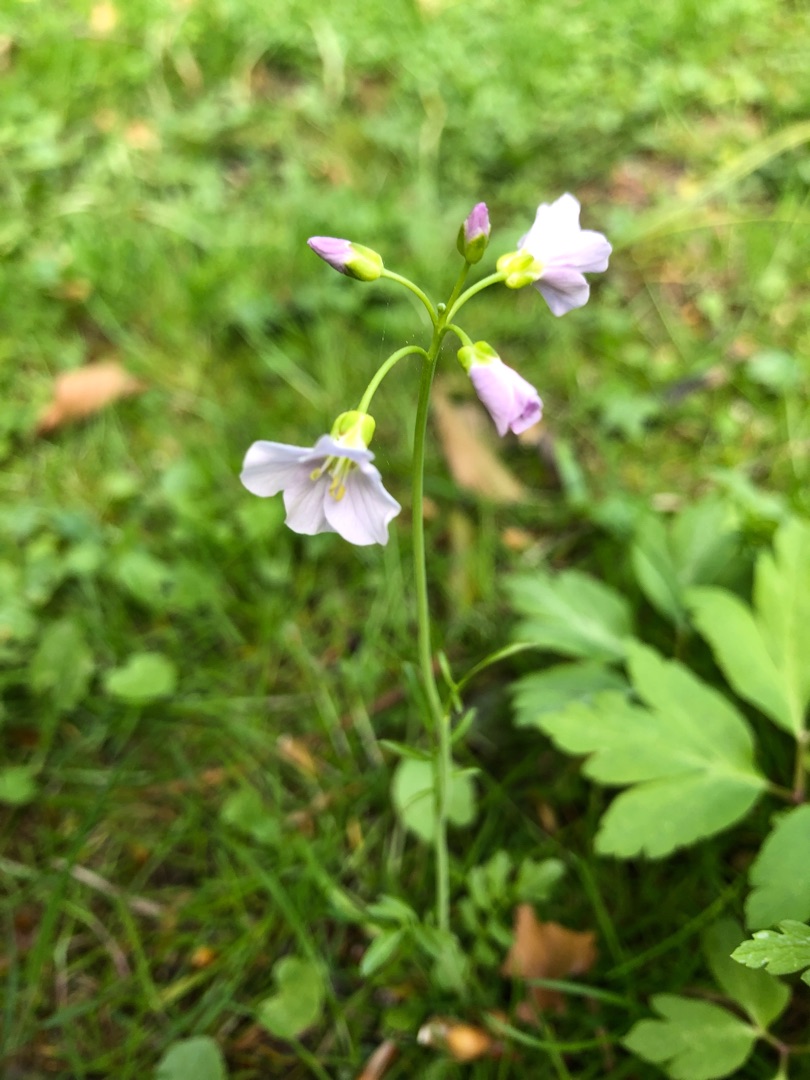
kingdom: Plantae
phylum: Tracheophyta
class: Magnoliopsida
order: Brassicales
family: Brassicaceae
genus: Cardamine
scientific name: Cardamine pratensis
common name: Engkarse
